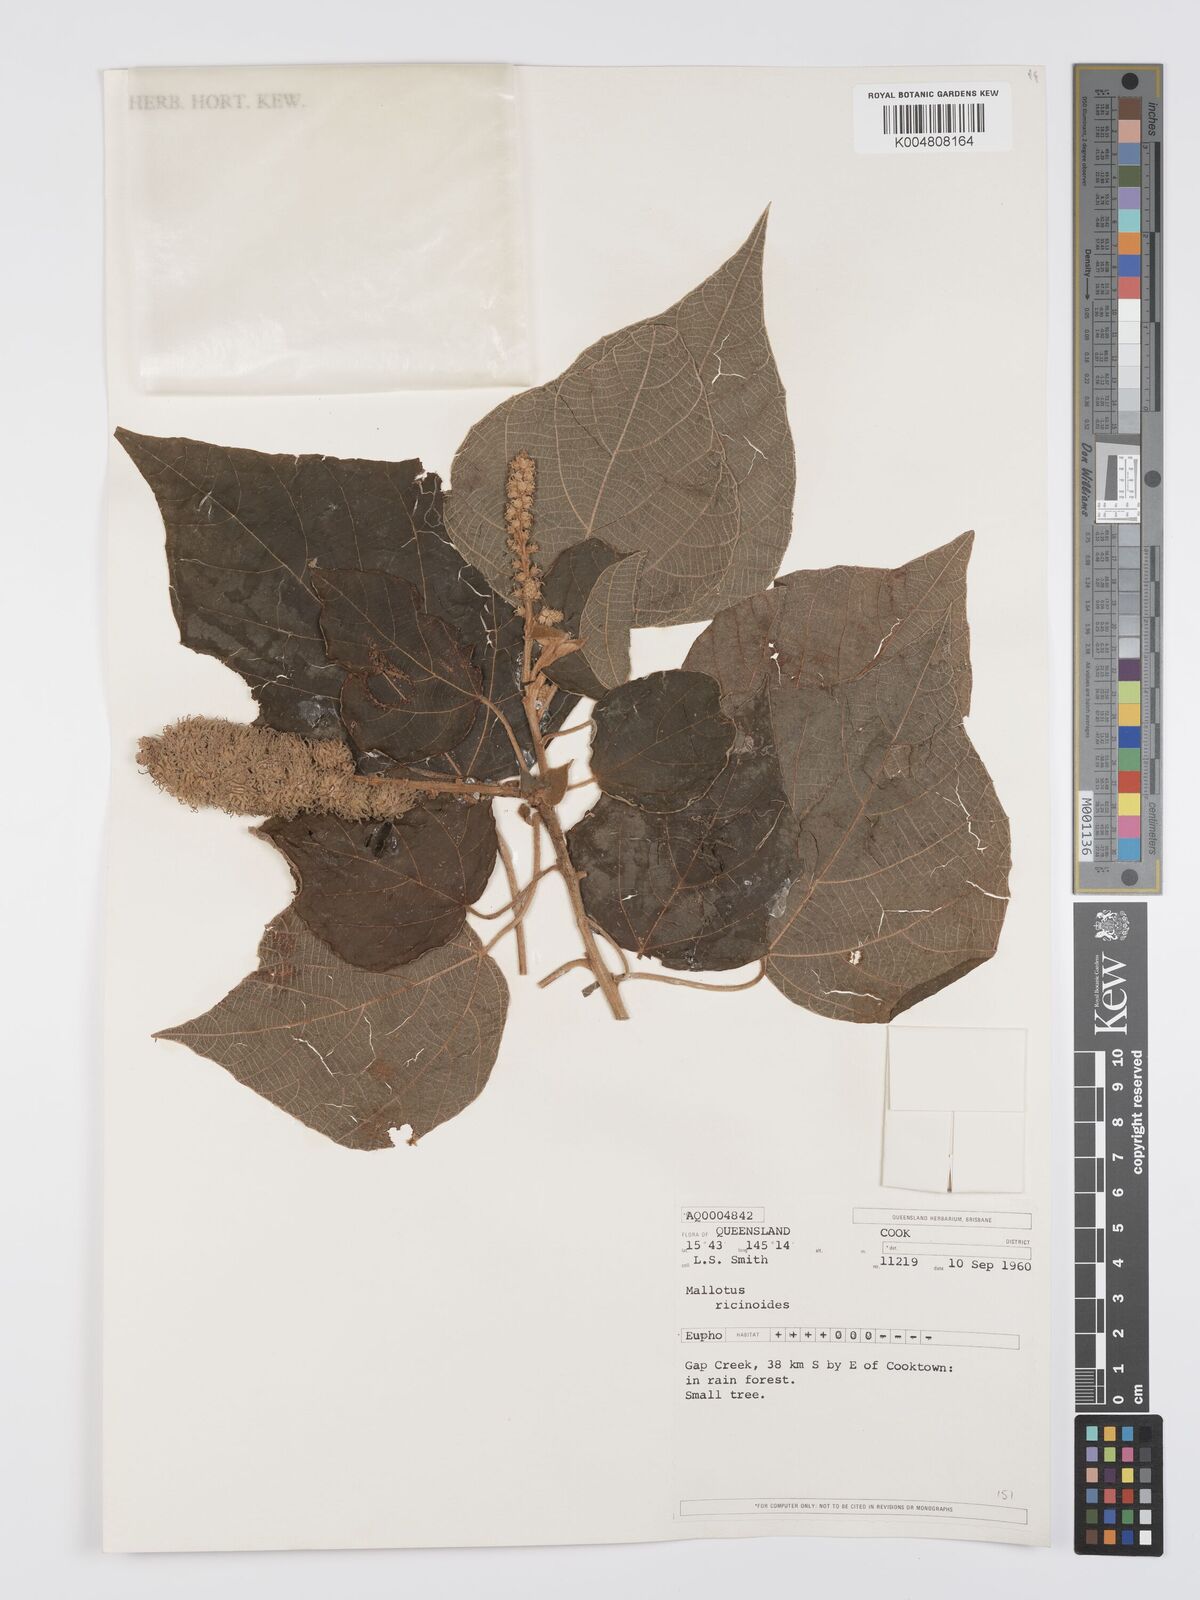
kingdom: Plantae
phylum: Tracheophyta
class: Magnoliopsida
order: Malpighiales
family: Euphorbiaceae
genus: Mallotus
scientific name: Mallotus mollissimus
